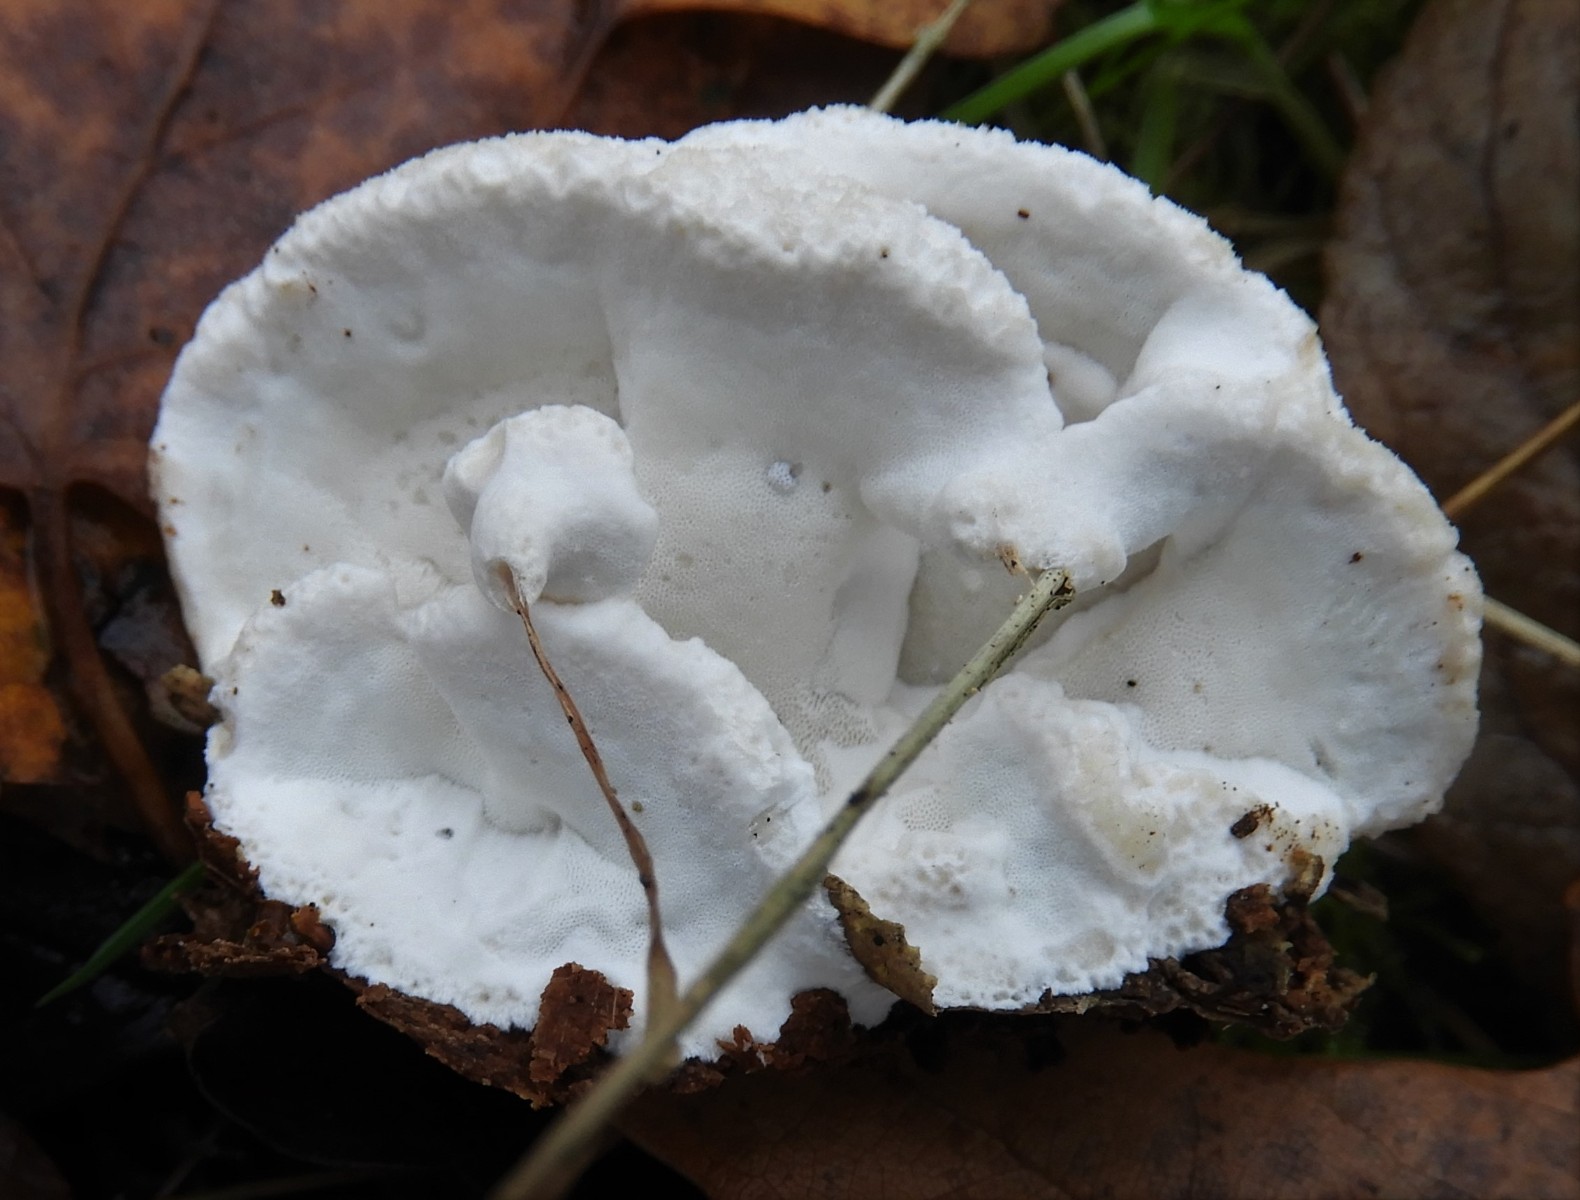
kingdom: Fungi
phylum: Basidiomycota
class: Agaricomycetes
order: Polyporales
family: Incrustoporiaceae
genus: Skeletocutis
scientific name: Skeletocutis nemoralis
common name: stor krystalporesvamp
